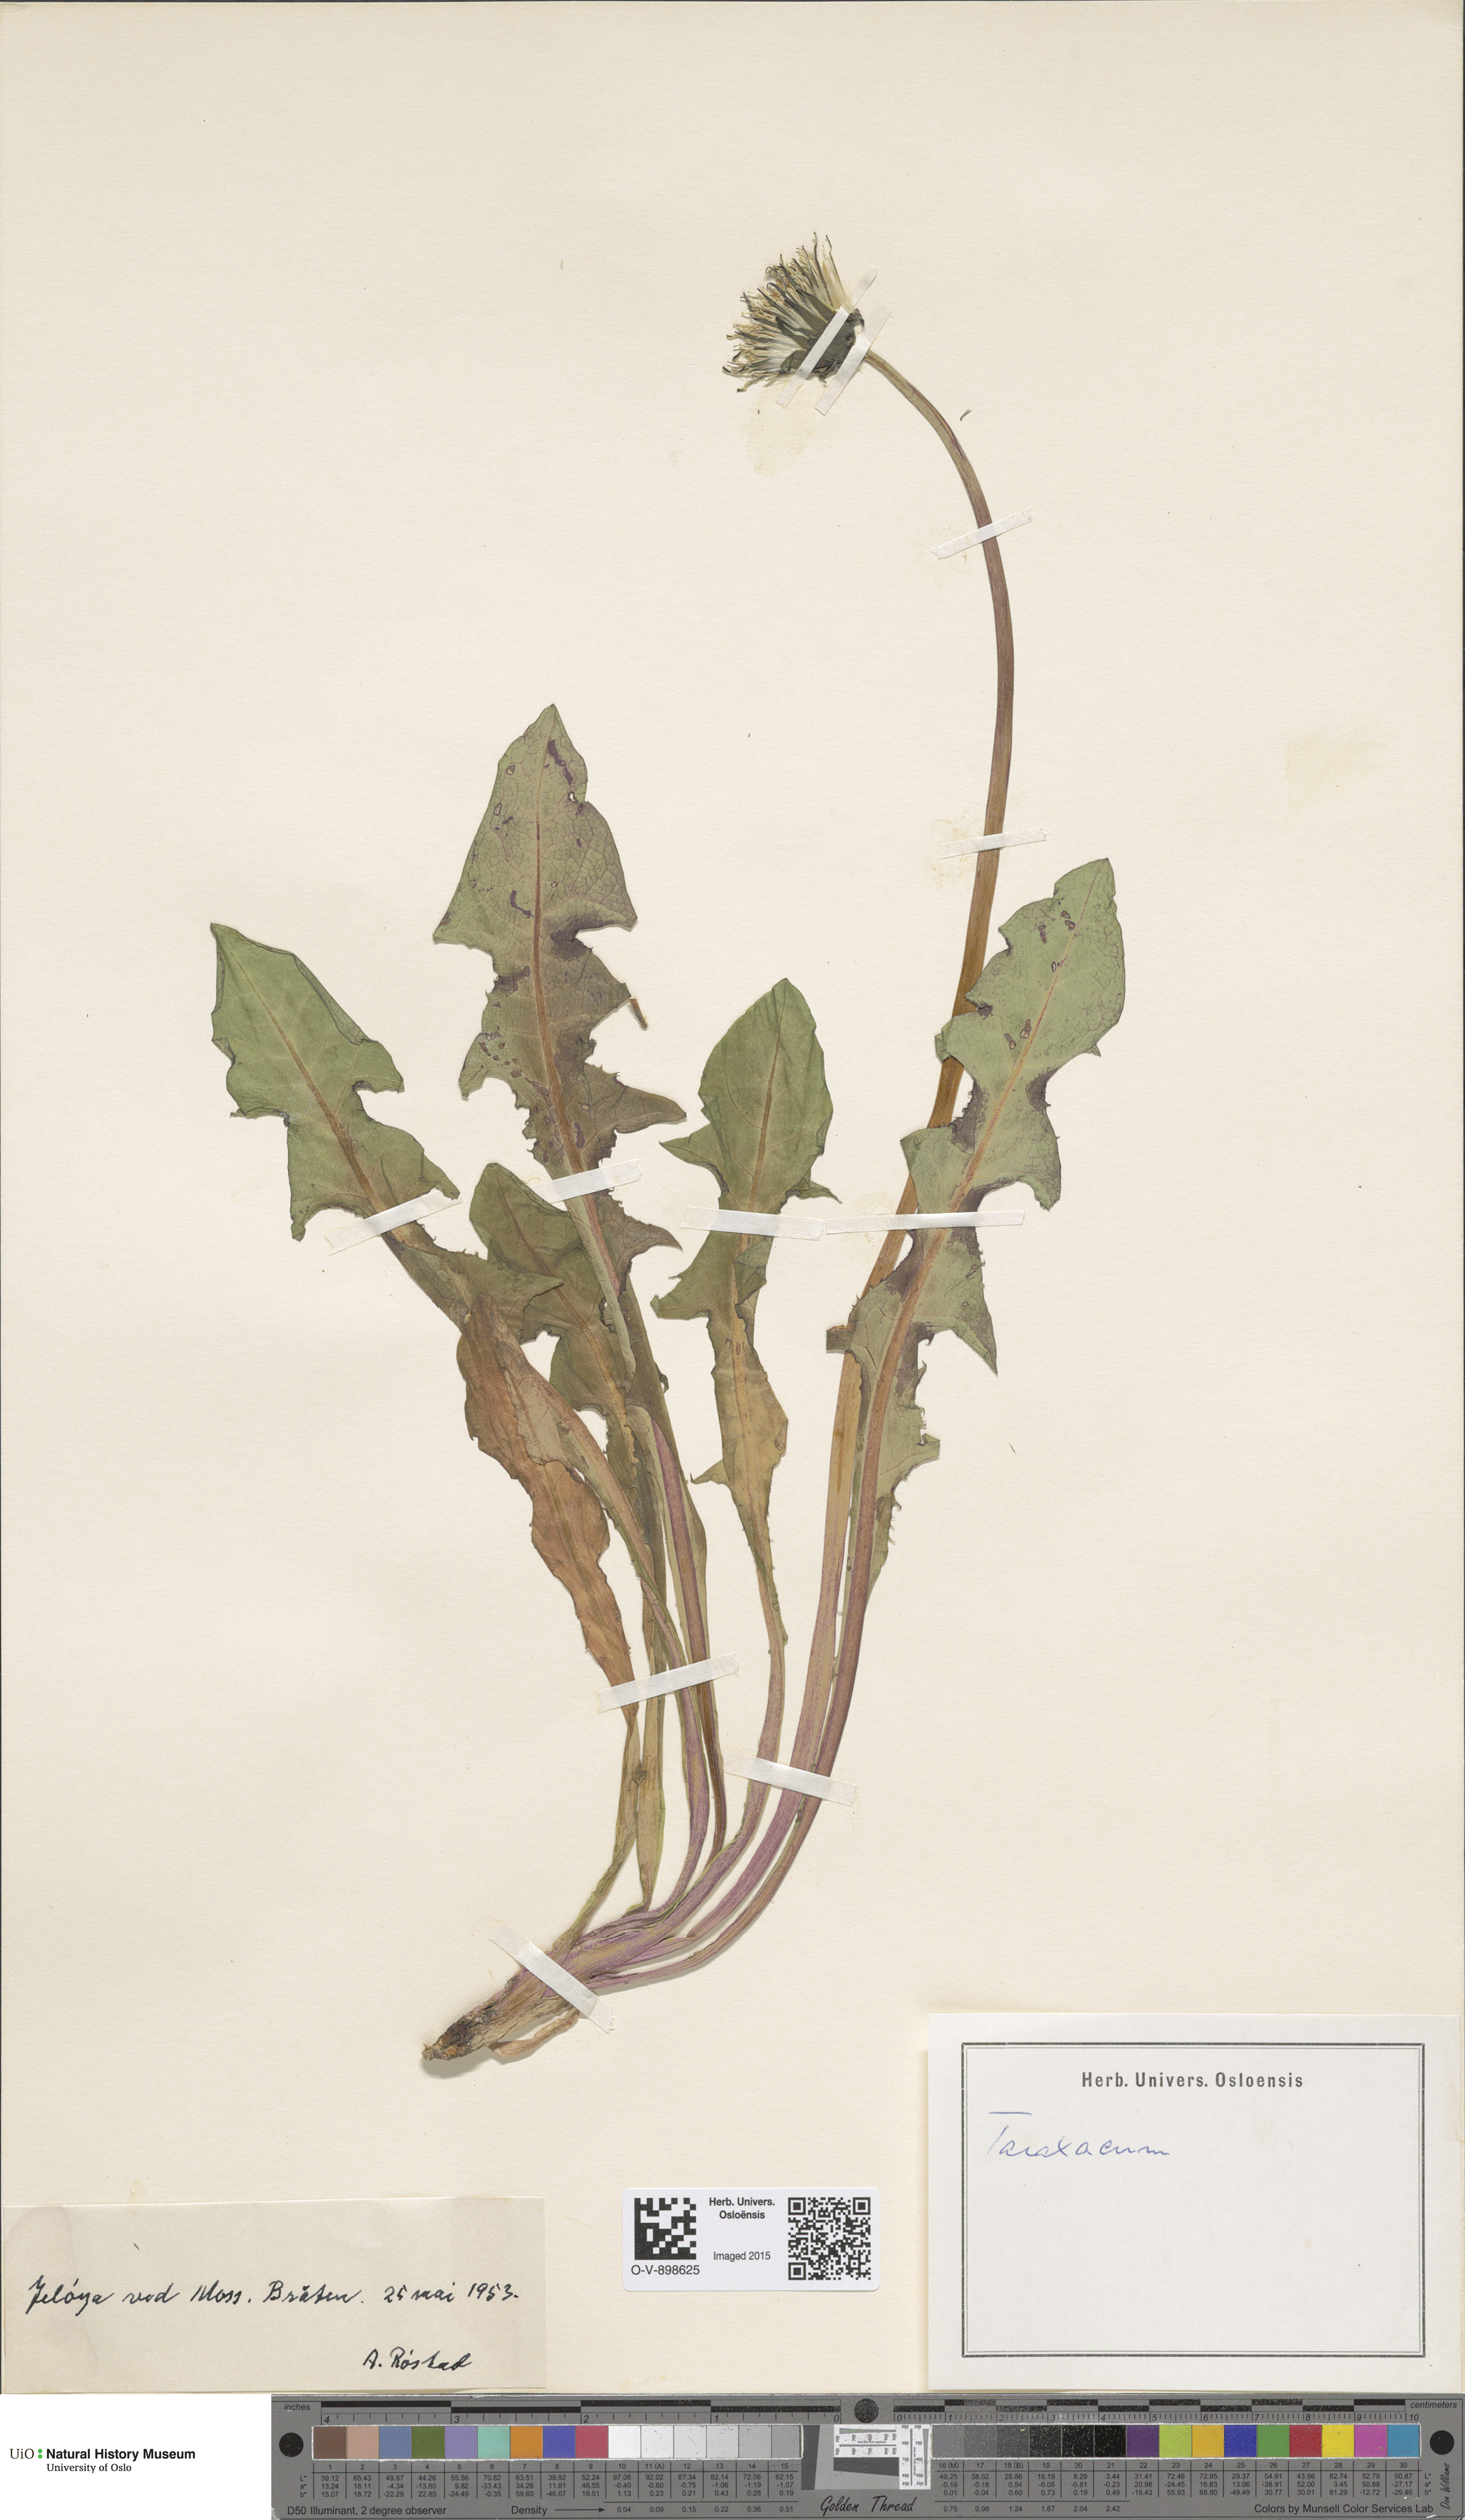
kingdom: Plantae
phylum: Tracheophyta
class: Magnoliopsida
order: Asterales
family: Asteraceae
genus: Taraxacum
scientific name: Taraxacum
